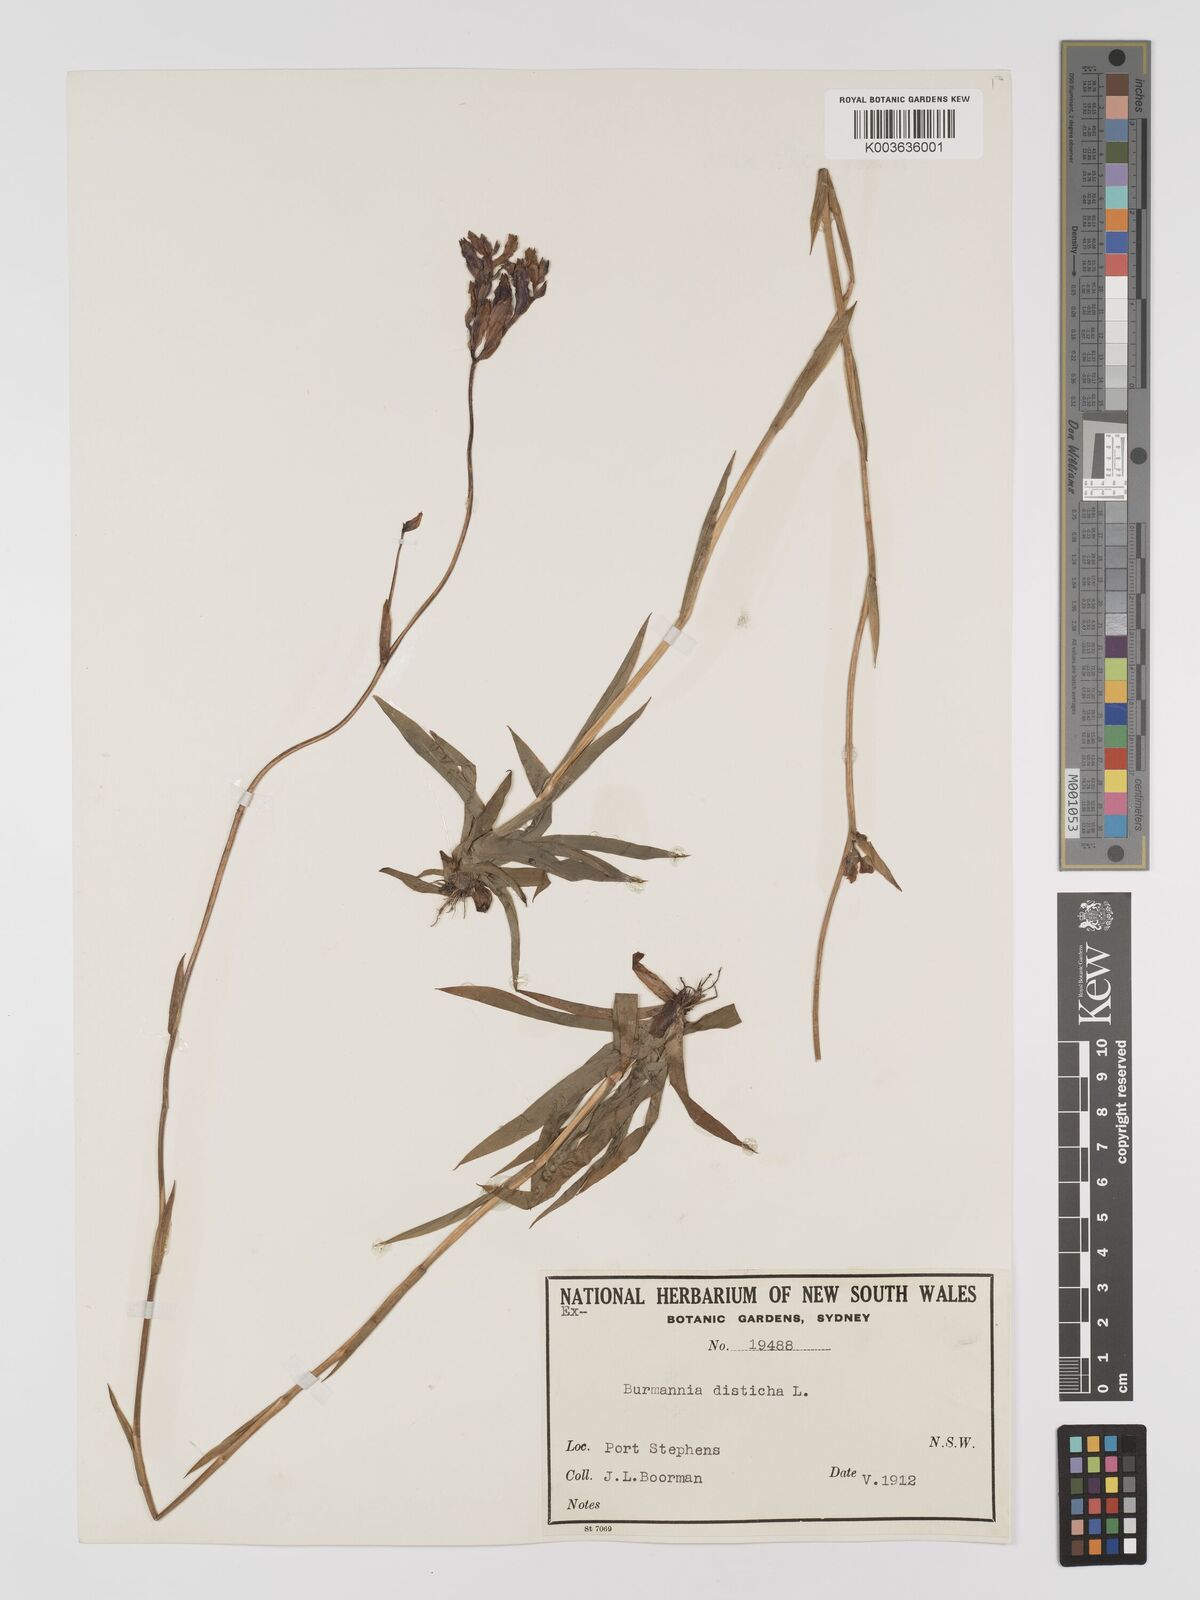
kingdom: Plantae
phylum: Tracheophyta
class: Liliopsida
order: Dioscoreales
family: Burmanniaceae
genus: Burmannia
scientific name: Burmannia disticha
